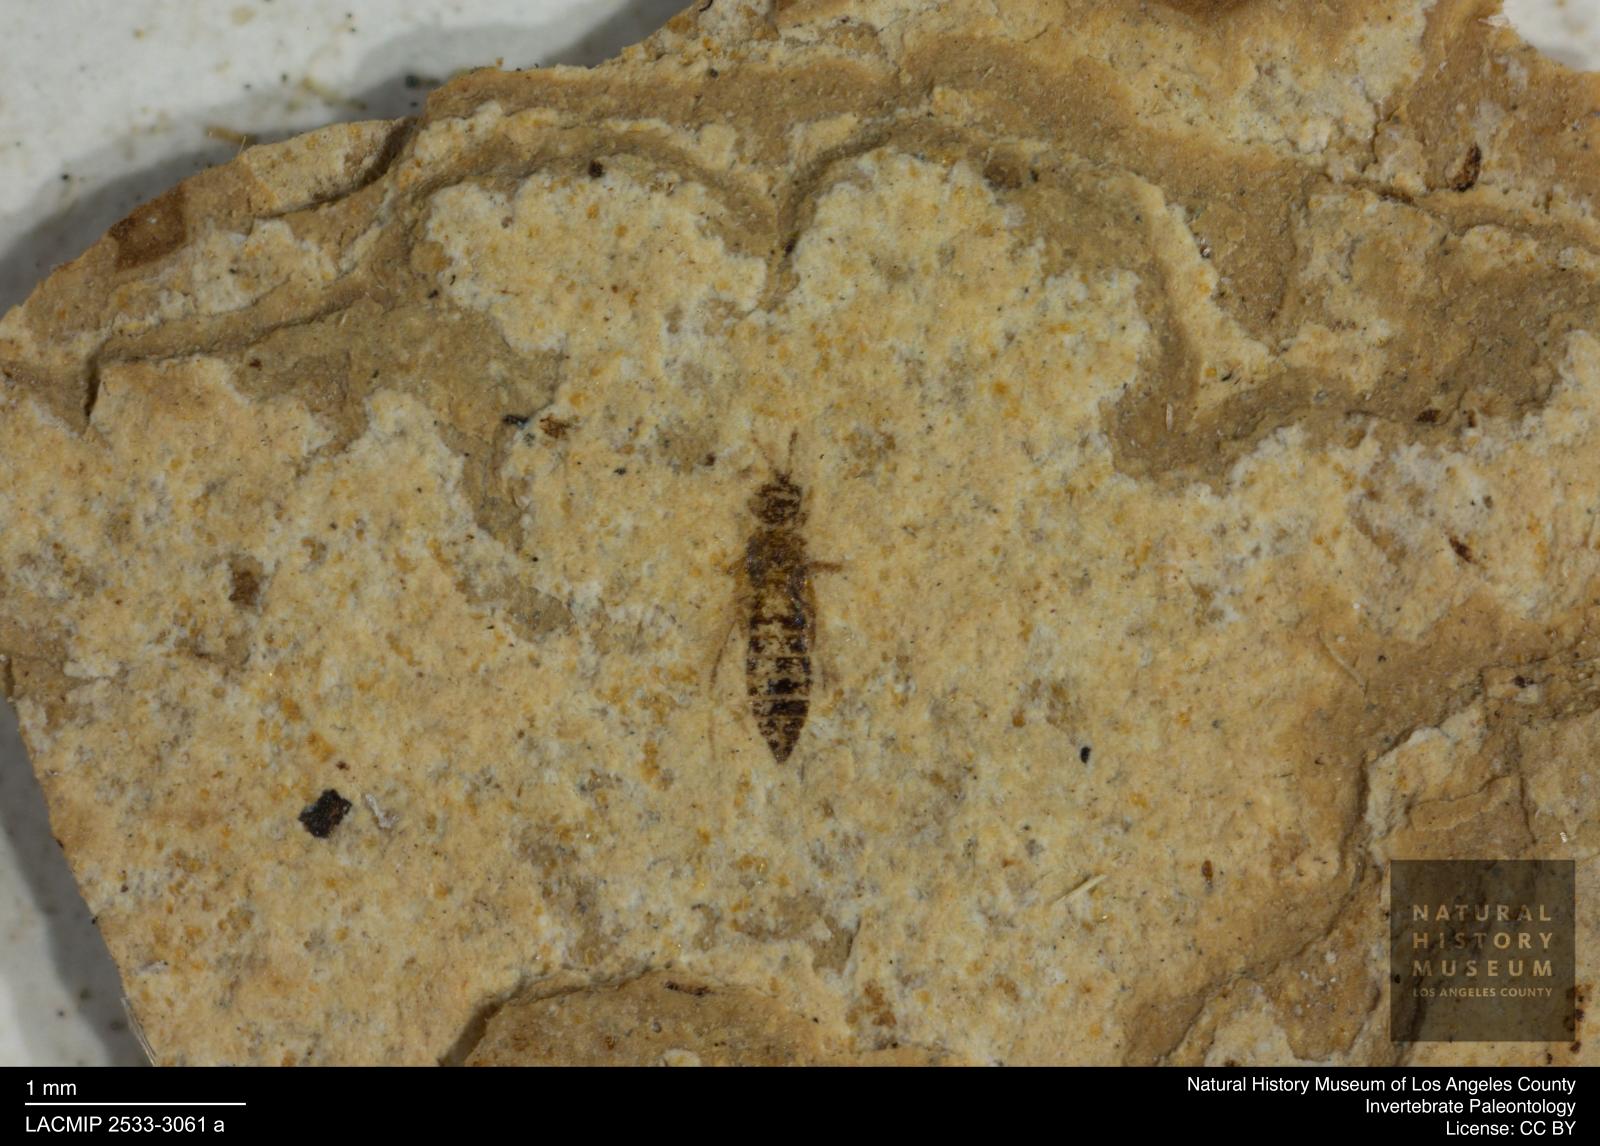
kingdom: Animalia
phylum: Arthropoda
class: Insecta
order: Thysanoptera
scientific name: Thysanoptera
